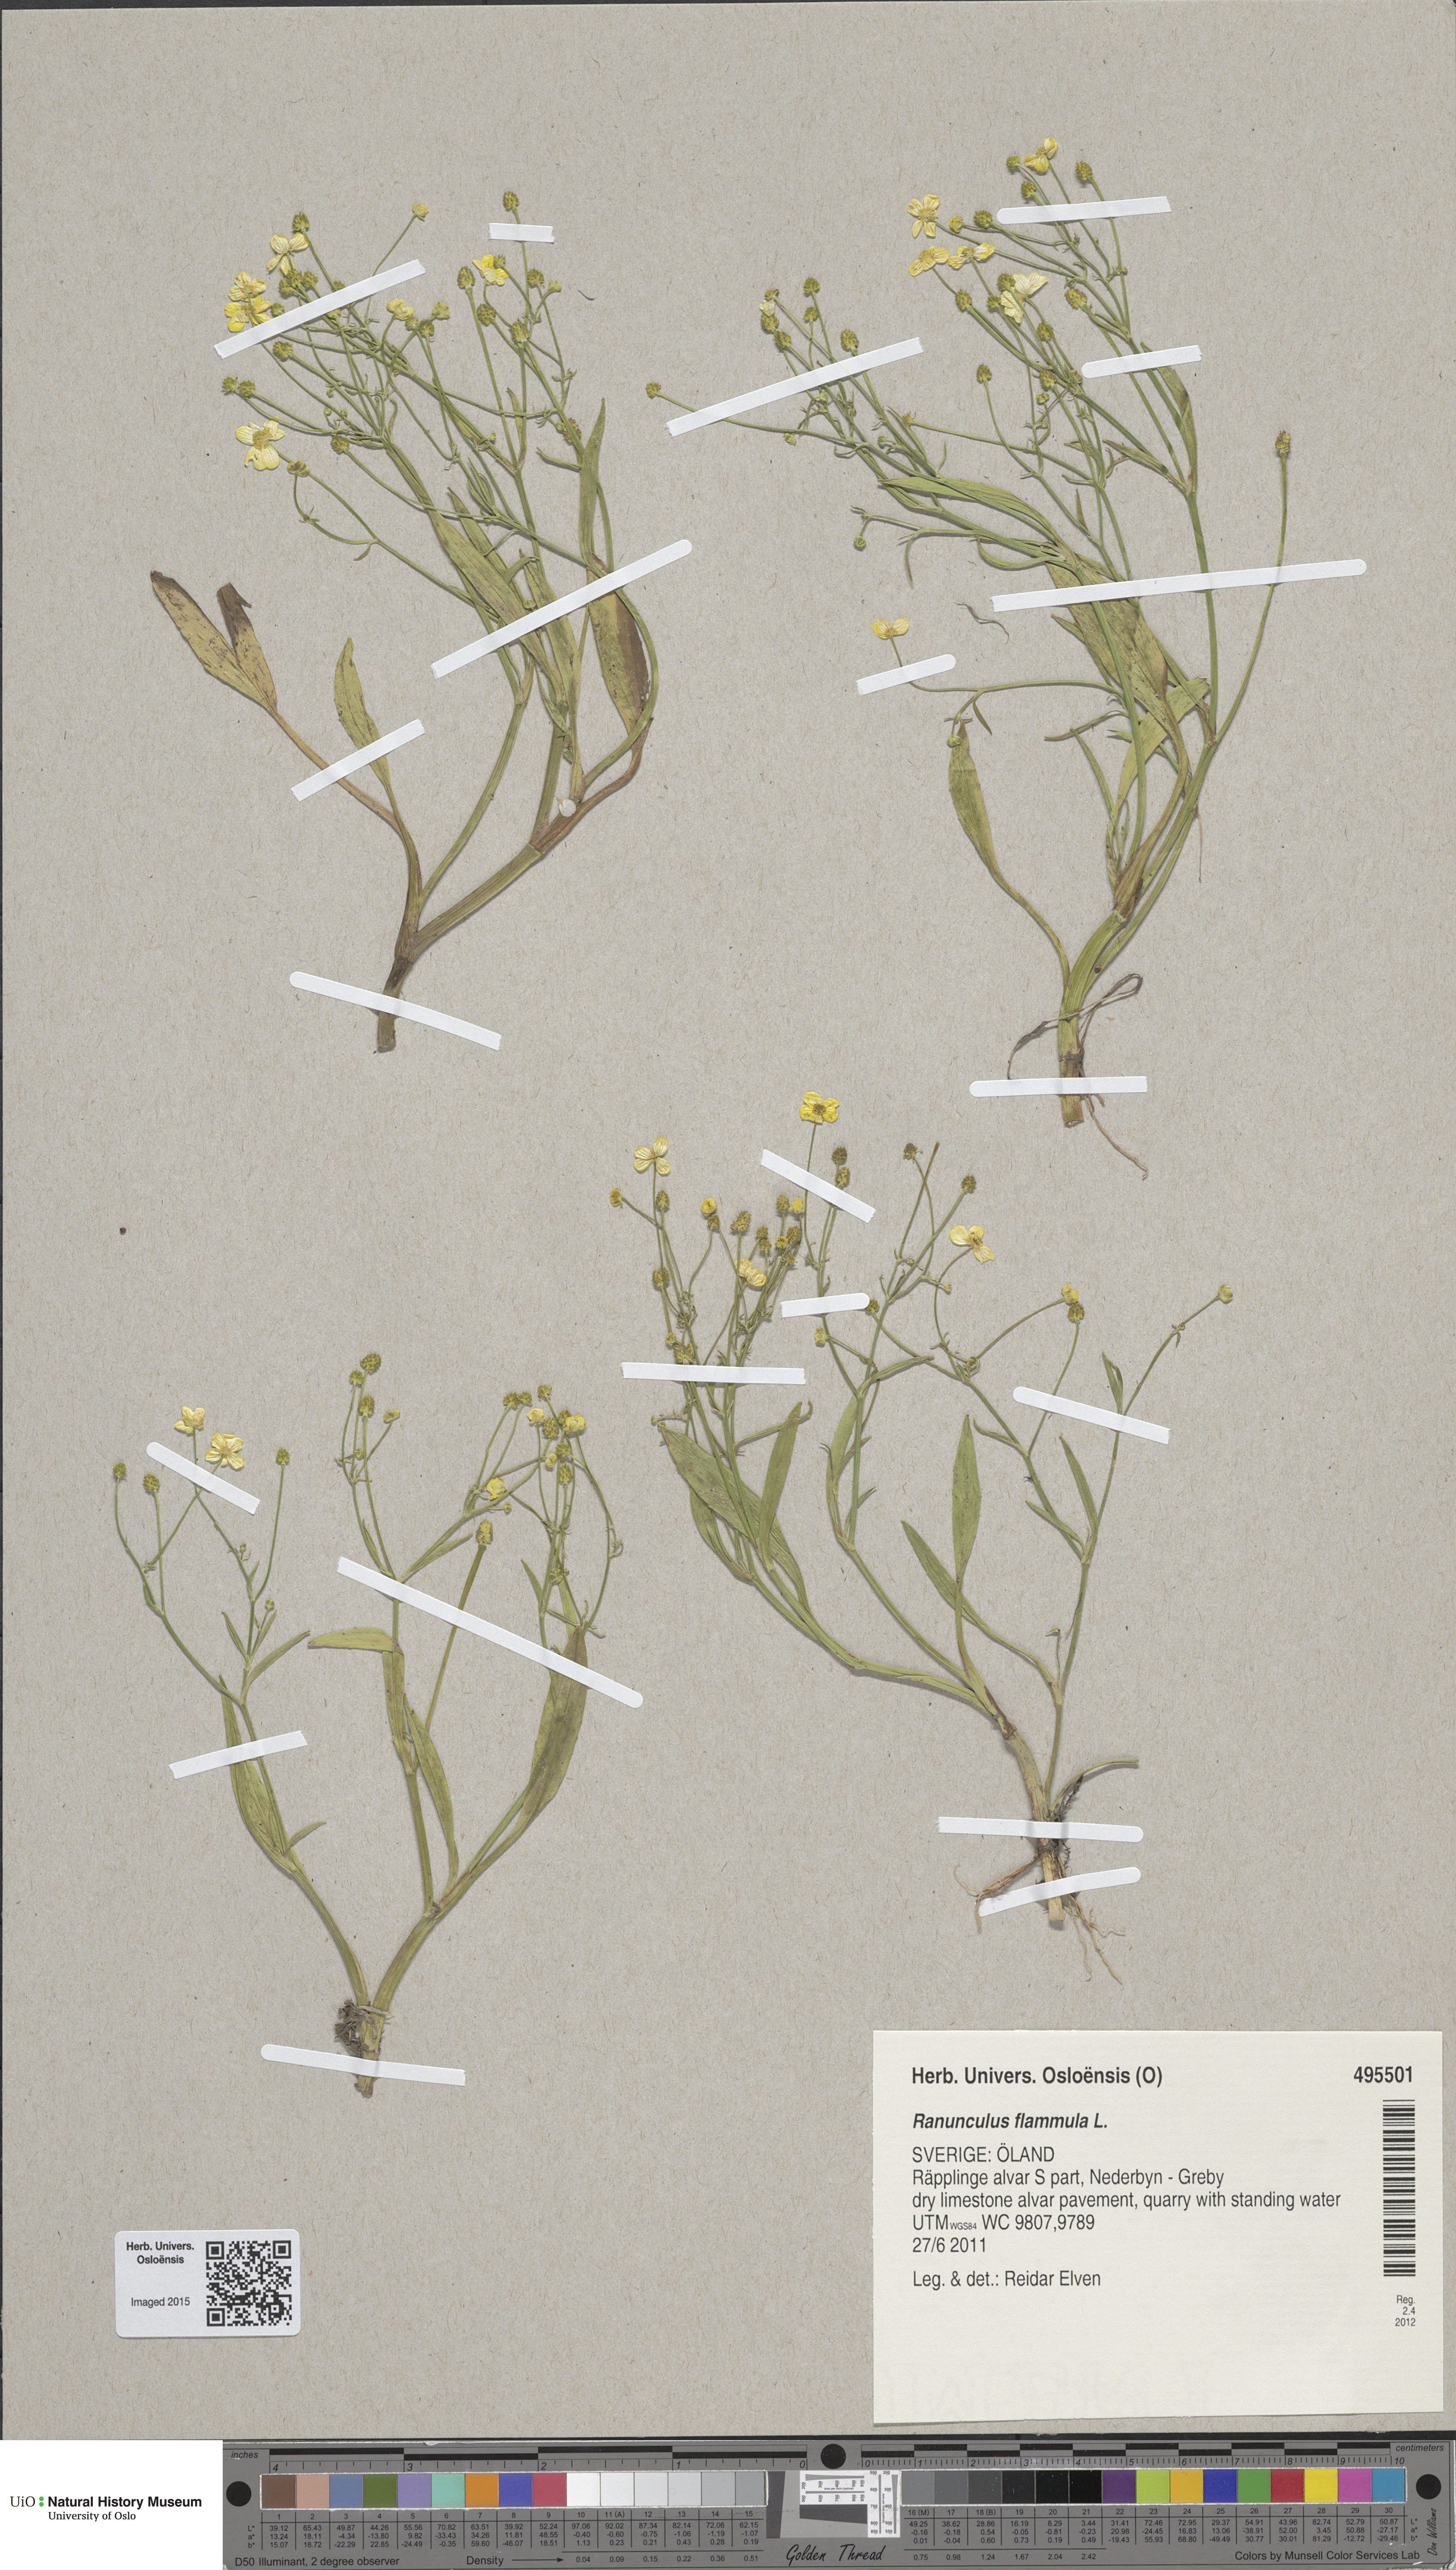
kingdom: Plantae
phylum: Tracheophyta
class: Magnoliopsida
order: Ranunculales
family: Ranunculaceae
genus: Ranunculus
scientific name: Ranunculus flammula
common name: Lesser spearwort
